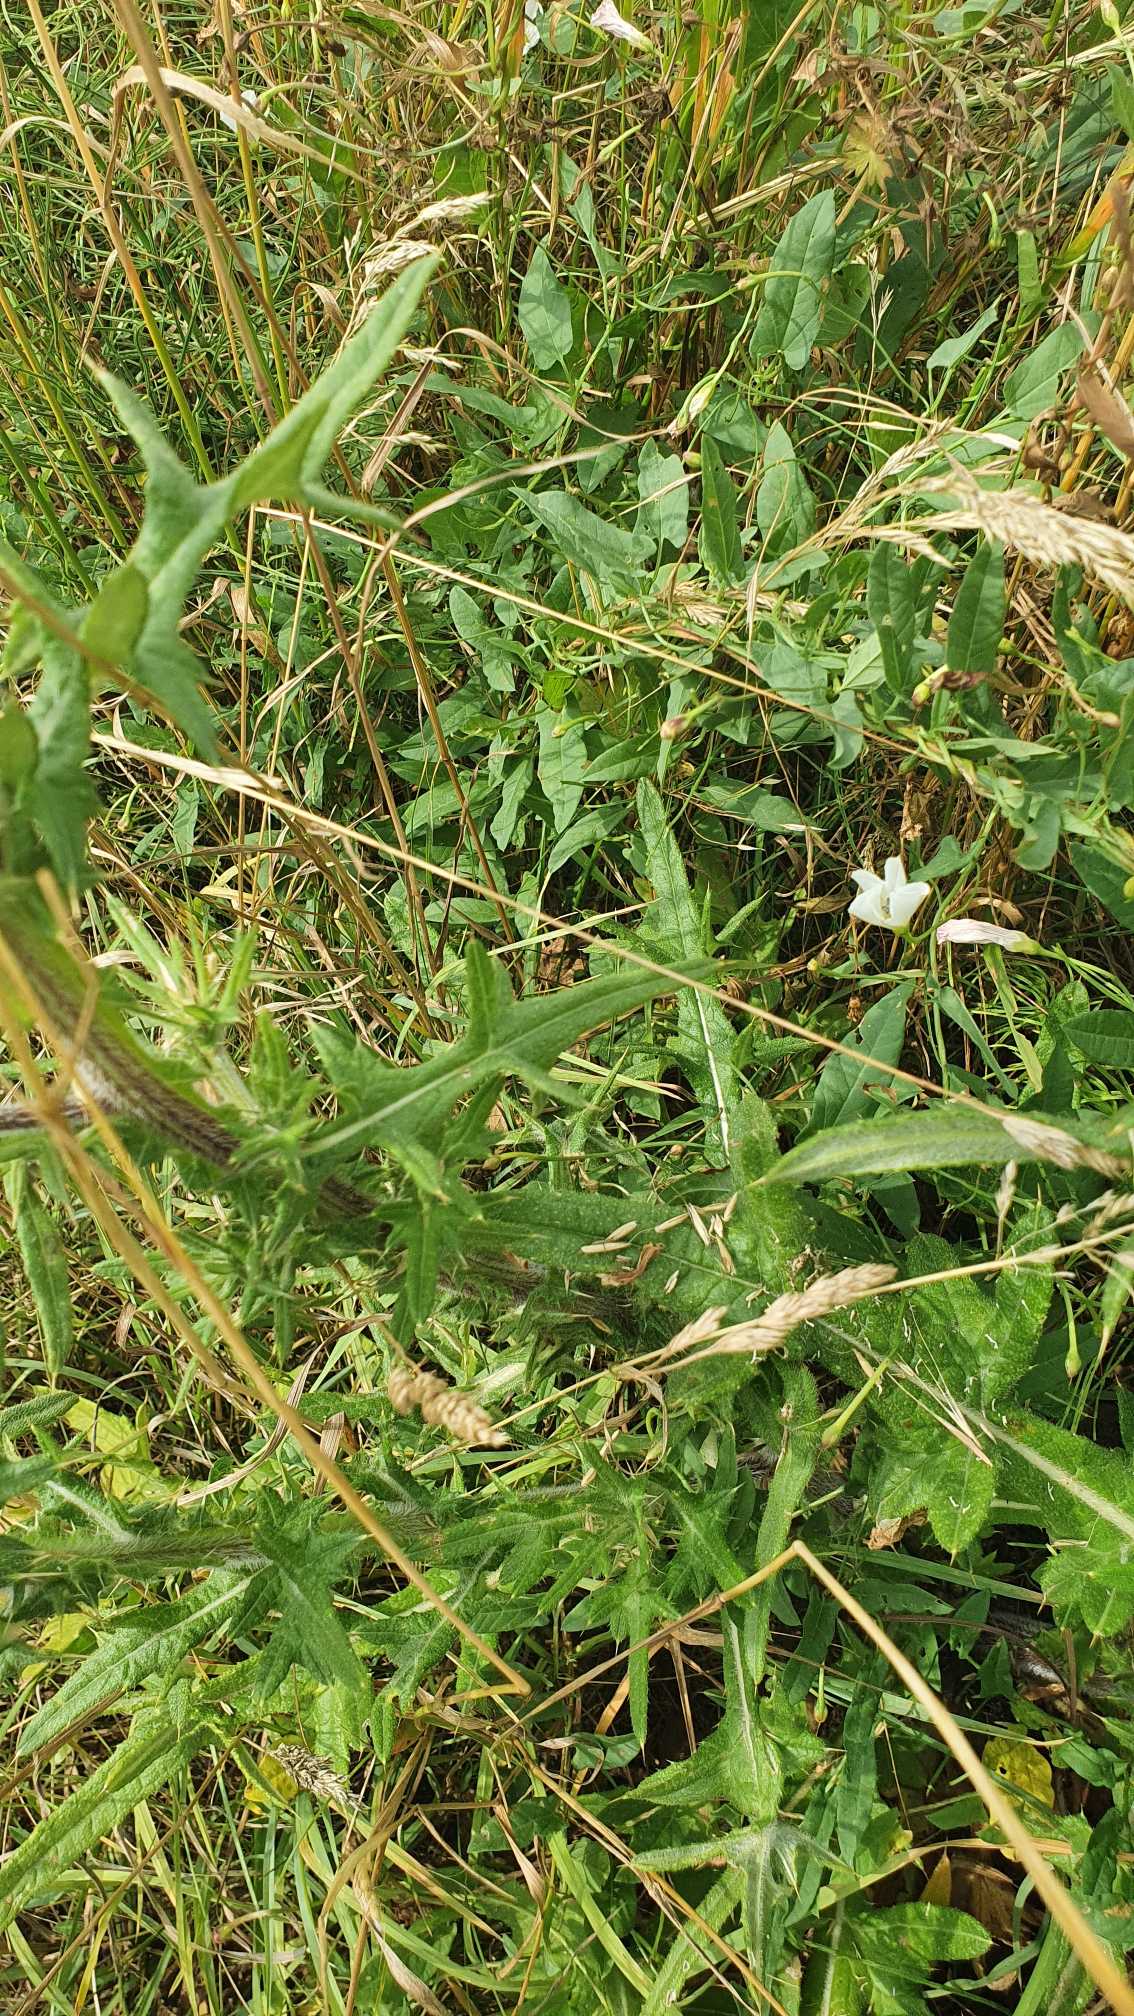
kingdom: Plantae
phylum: Tracheophyta
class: Magnoliopsida
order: Asterales
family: Asteraceae
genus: Cirsium
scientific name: Cirsium vulgare
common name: Horse-tidsel
